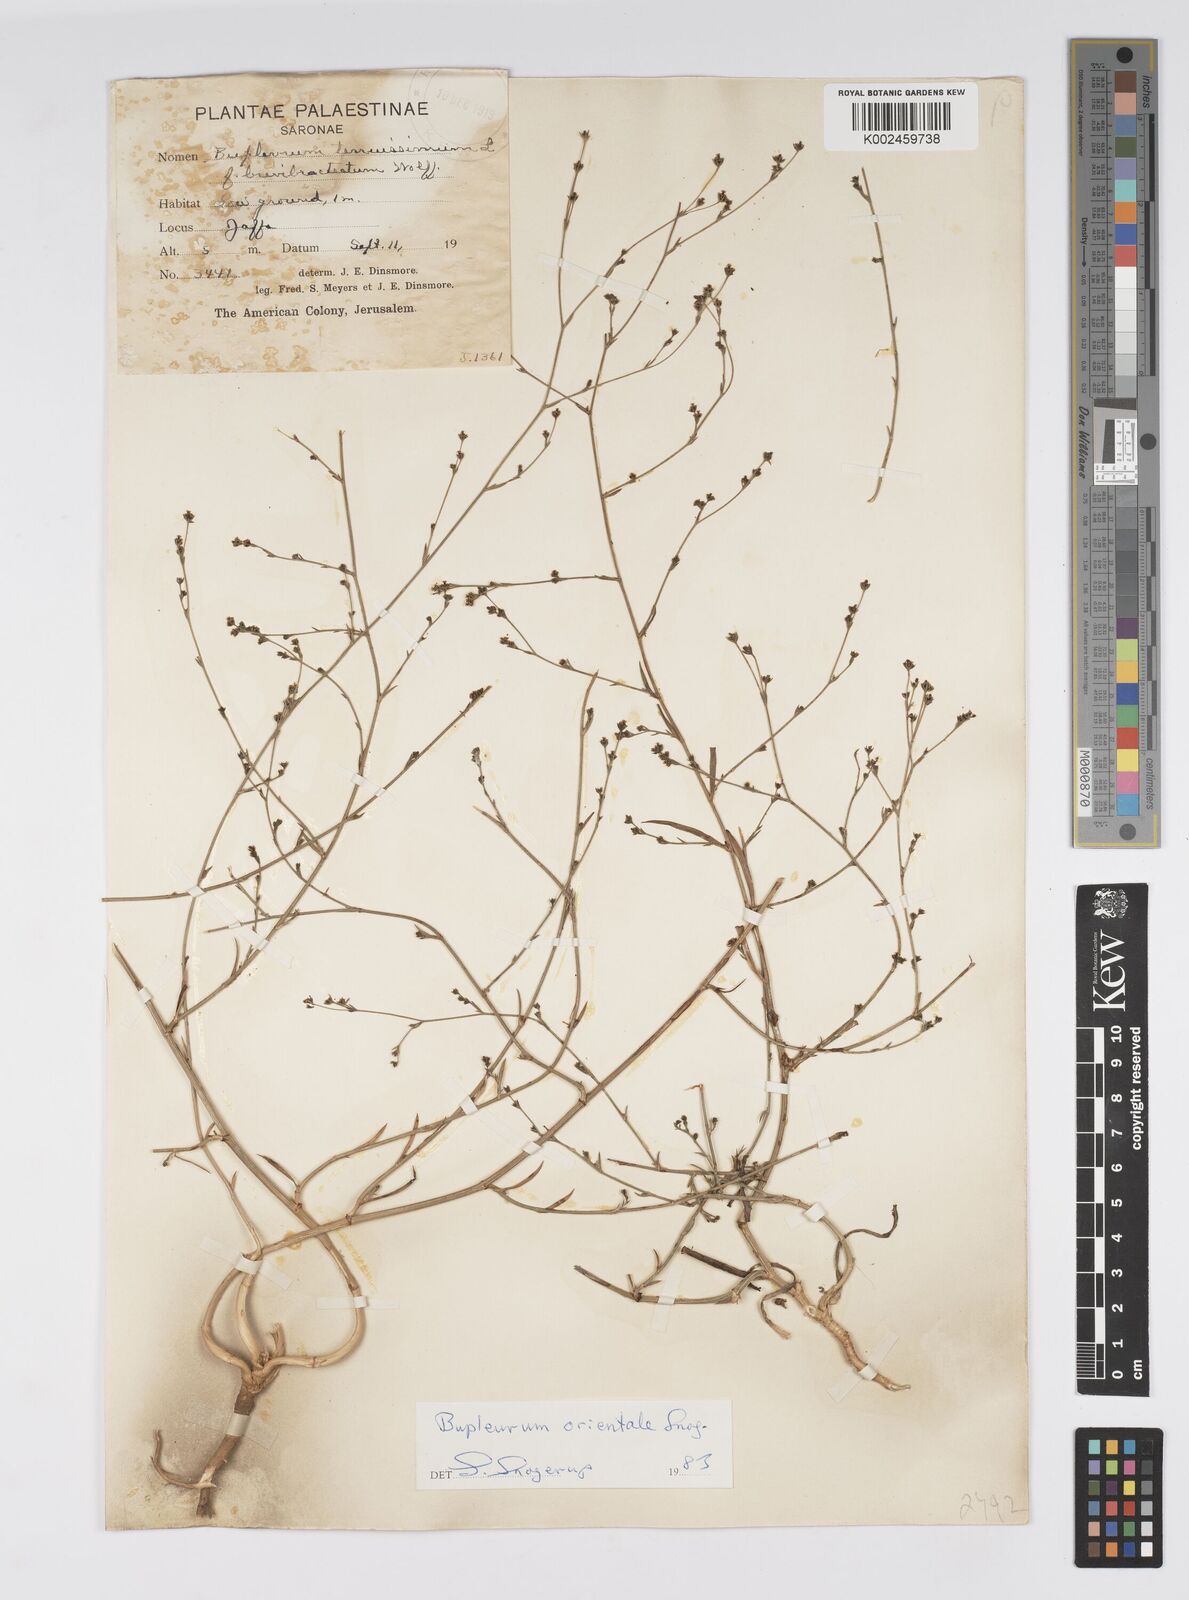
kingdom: Plantae
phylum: Tracheophyta
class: Magnoliopsida
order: Apiales
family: Apiaceae
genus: Bupleurum
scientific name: Bupleurum orientale
